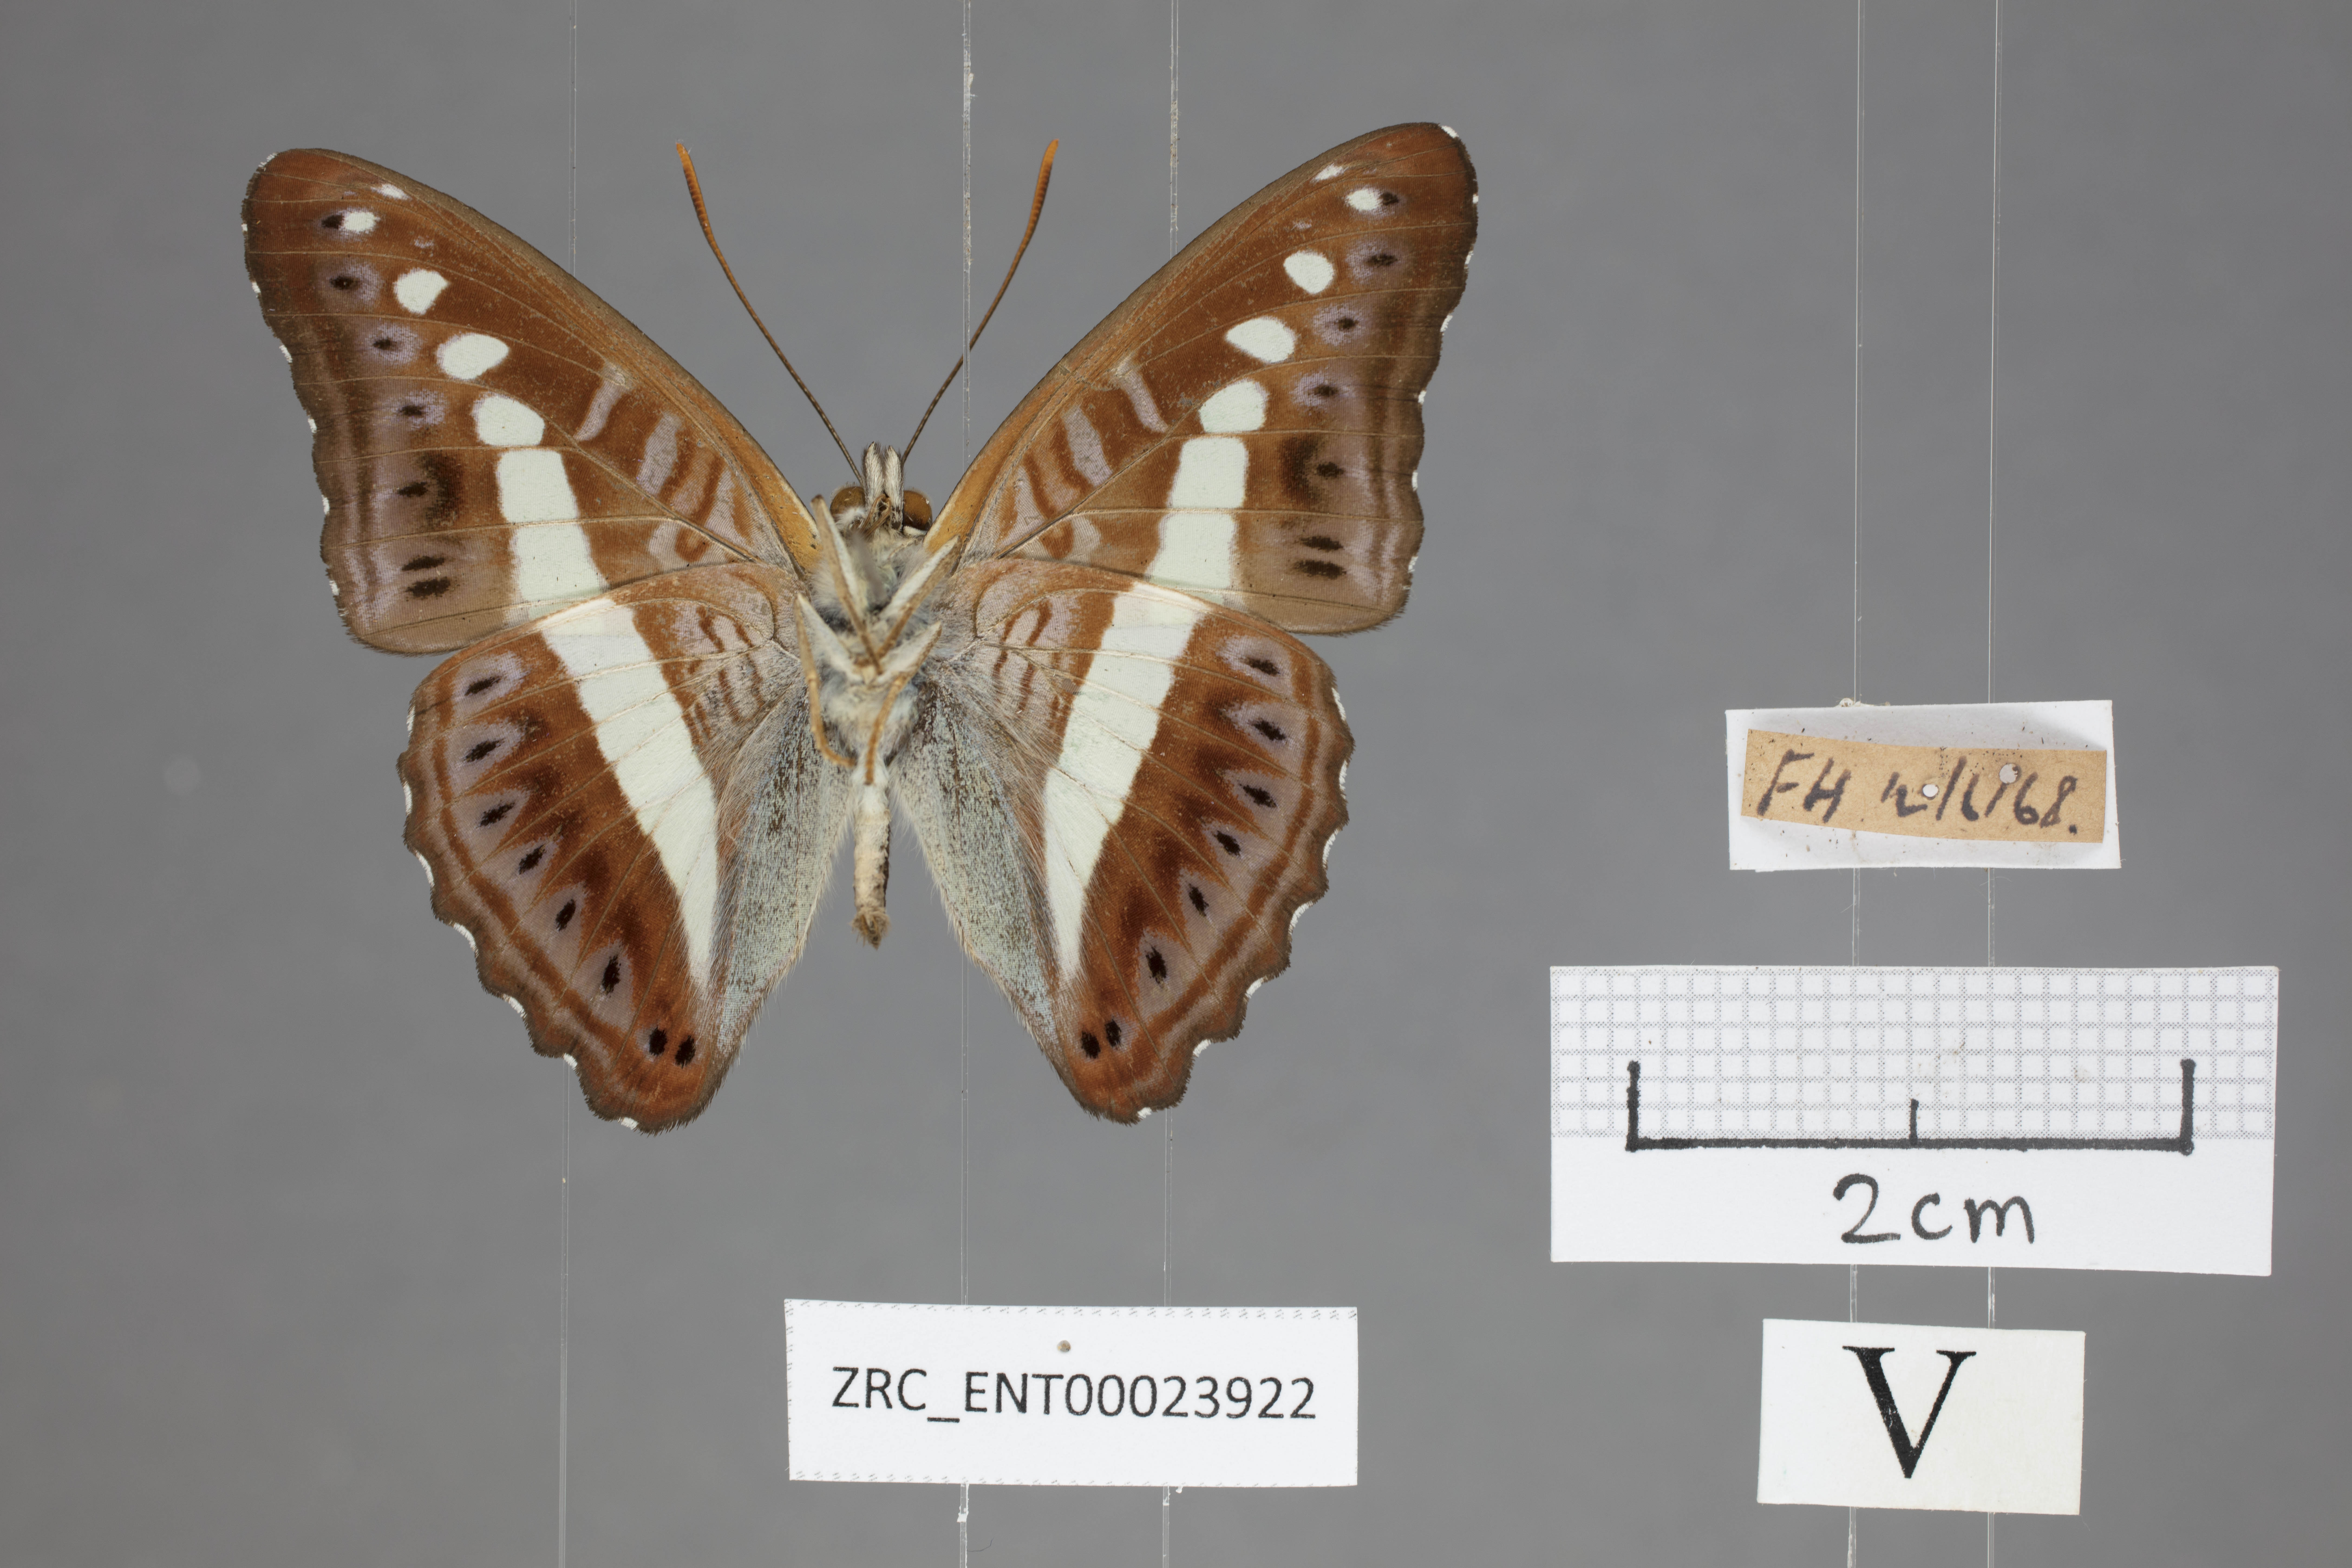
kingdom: Animalia
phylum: Arthropoda
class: Insecta
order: Lepidoptera
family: Nymphalidae
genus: Limenitis
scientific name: Limenitis Sumalia daraxa
